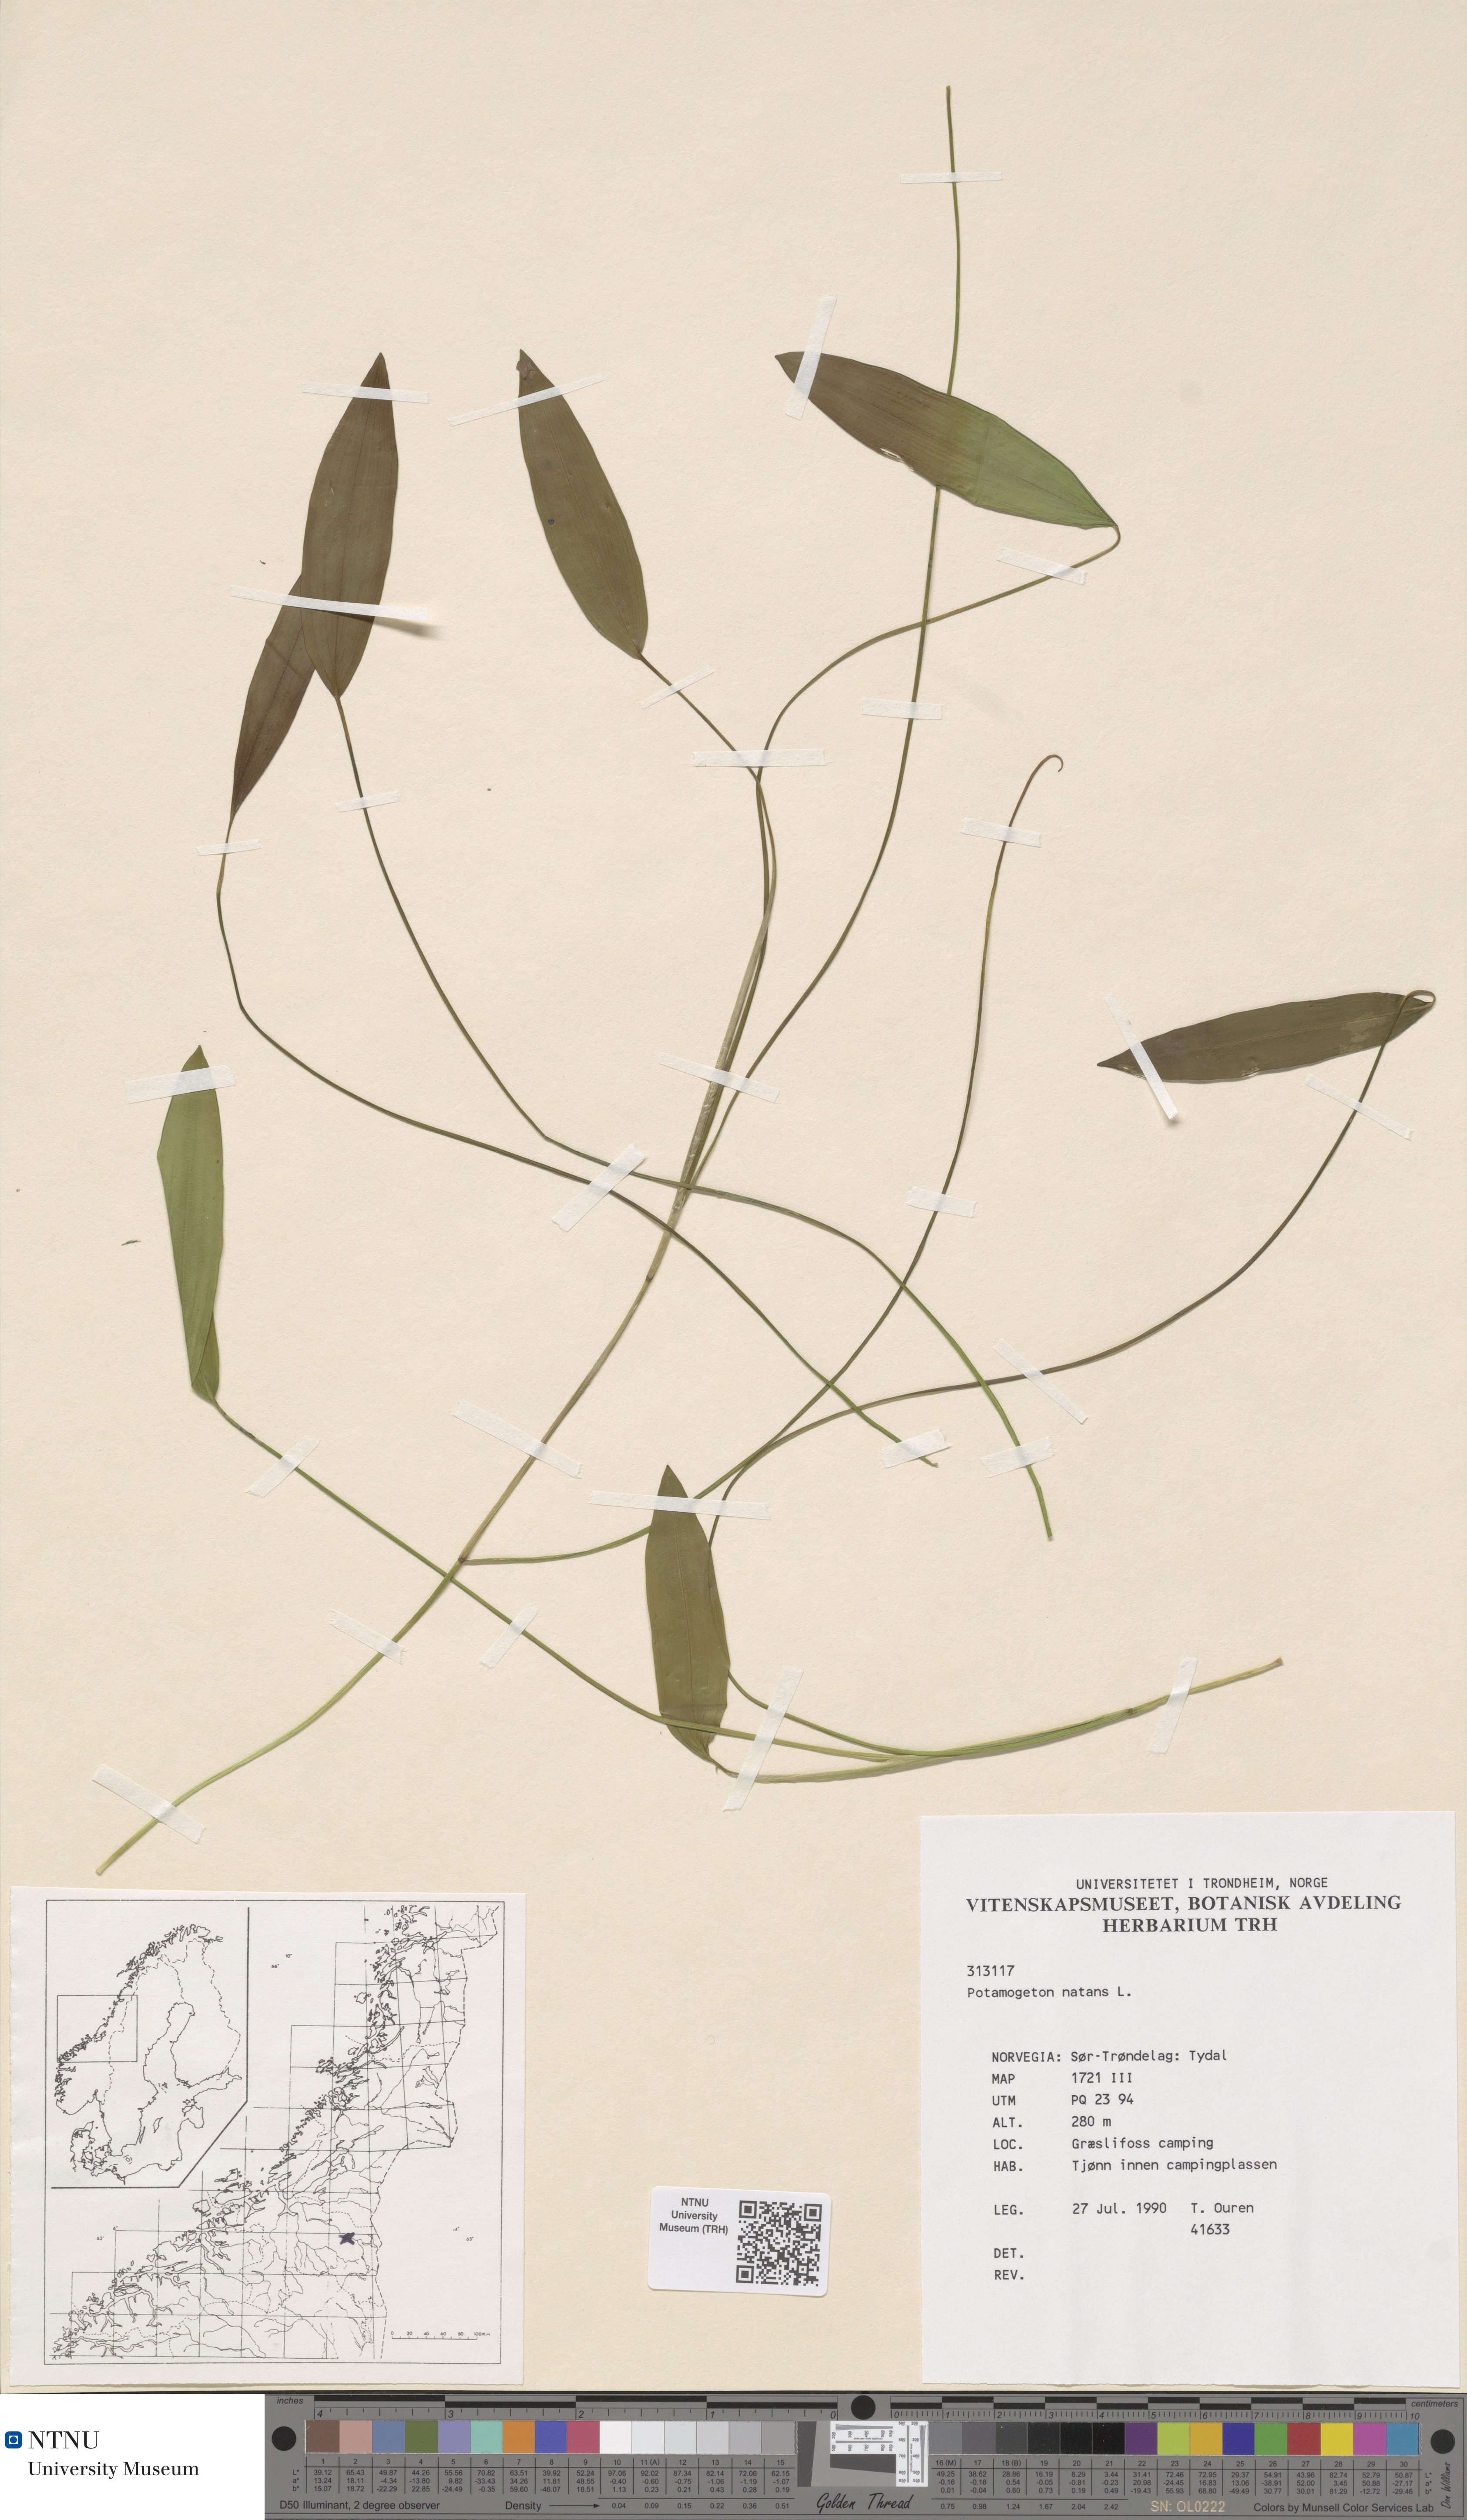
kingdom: Plantae
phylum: Tracheophyta
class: Liliopsida
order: Alismatales
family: Potamogetonaceae
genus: Potamogeton
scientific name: Potamogeton natans
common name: Broad-leaved pondweed
